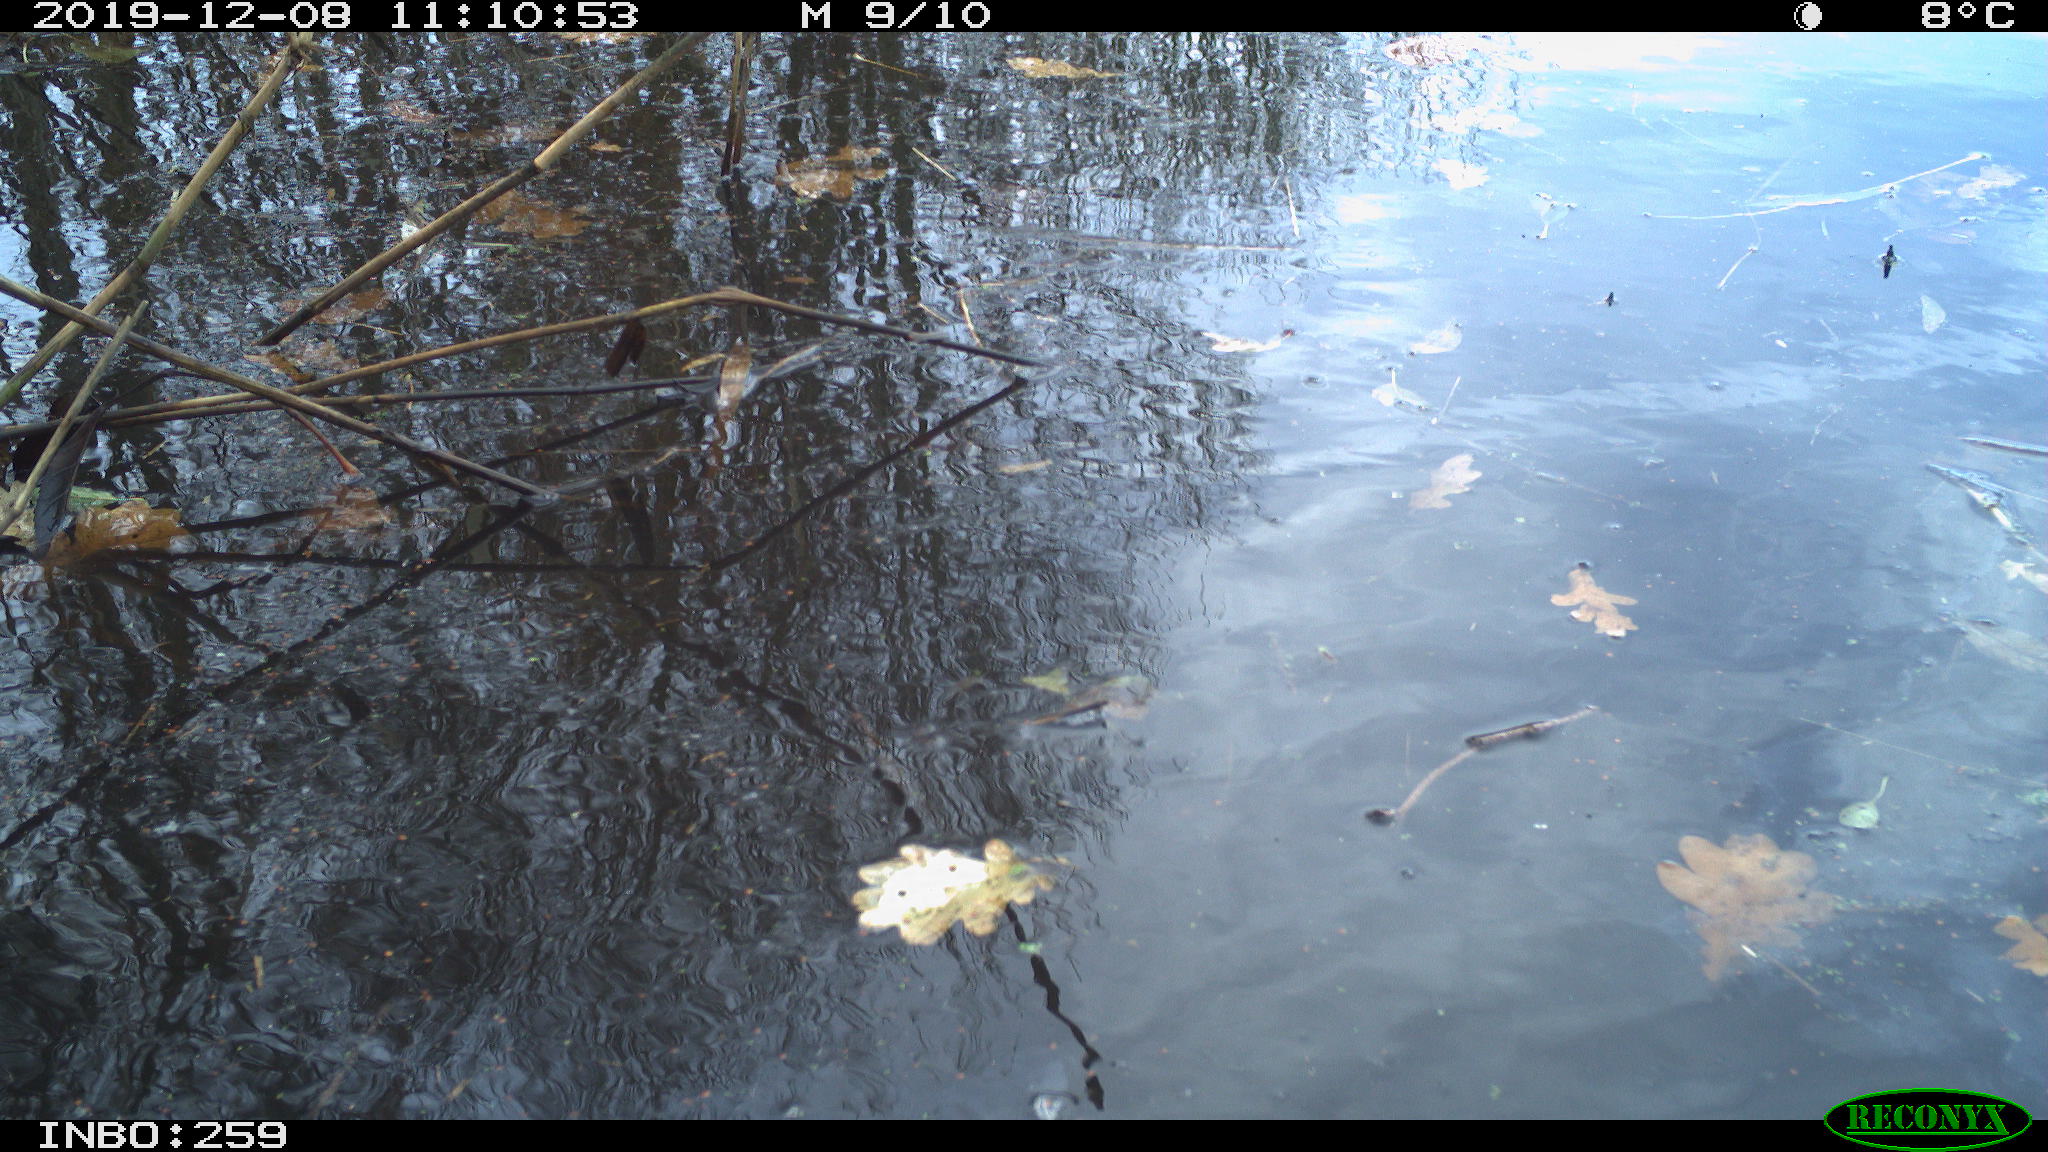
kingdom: Animalia
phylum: Chordata
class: Aves
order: Gruiformes
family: Rallidae
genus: Gallinula
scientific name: Gallinula chloropus
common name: Common moorhen
